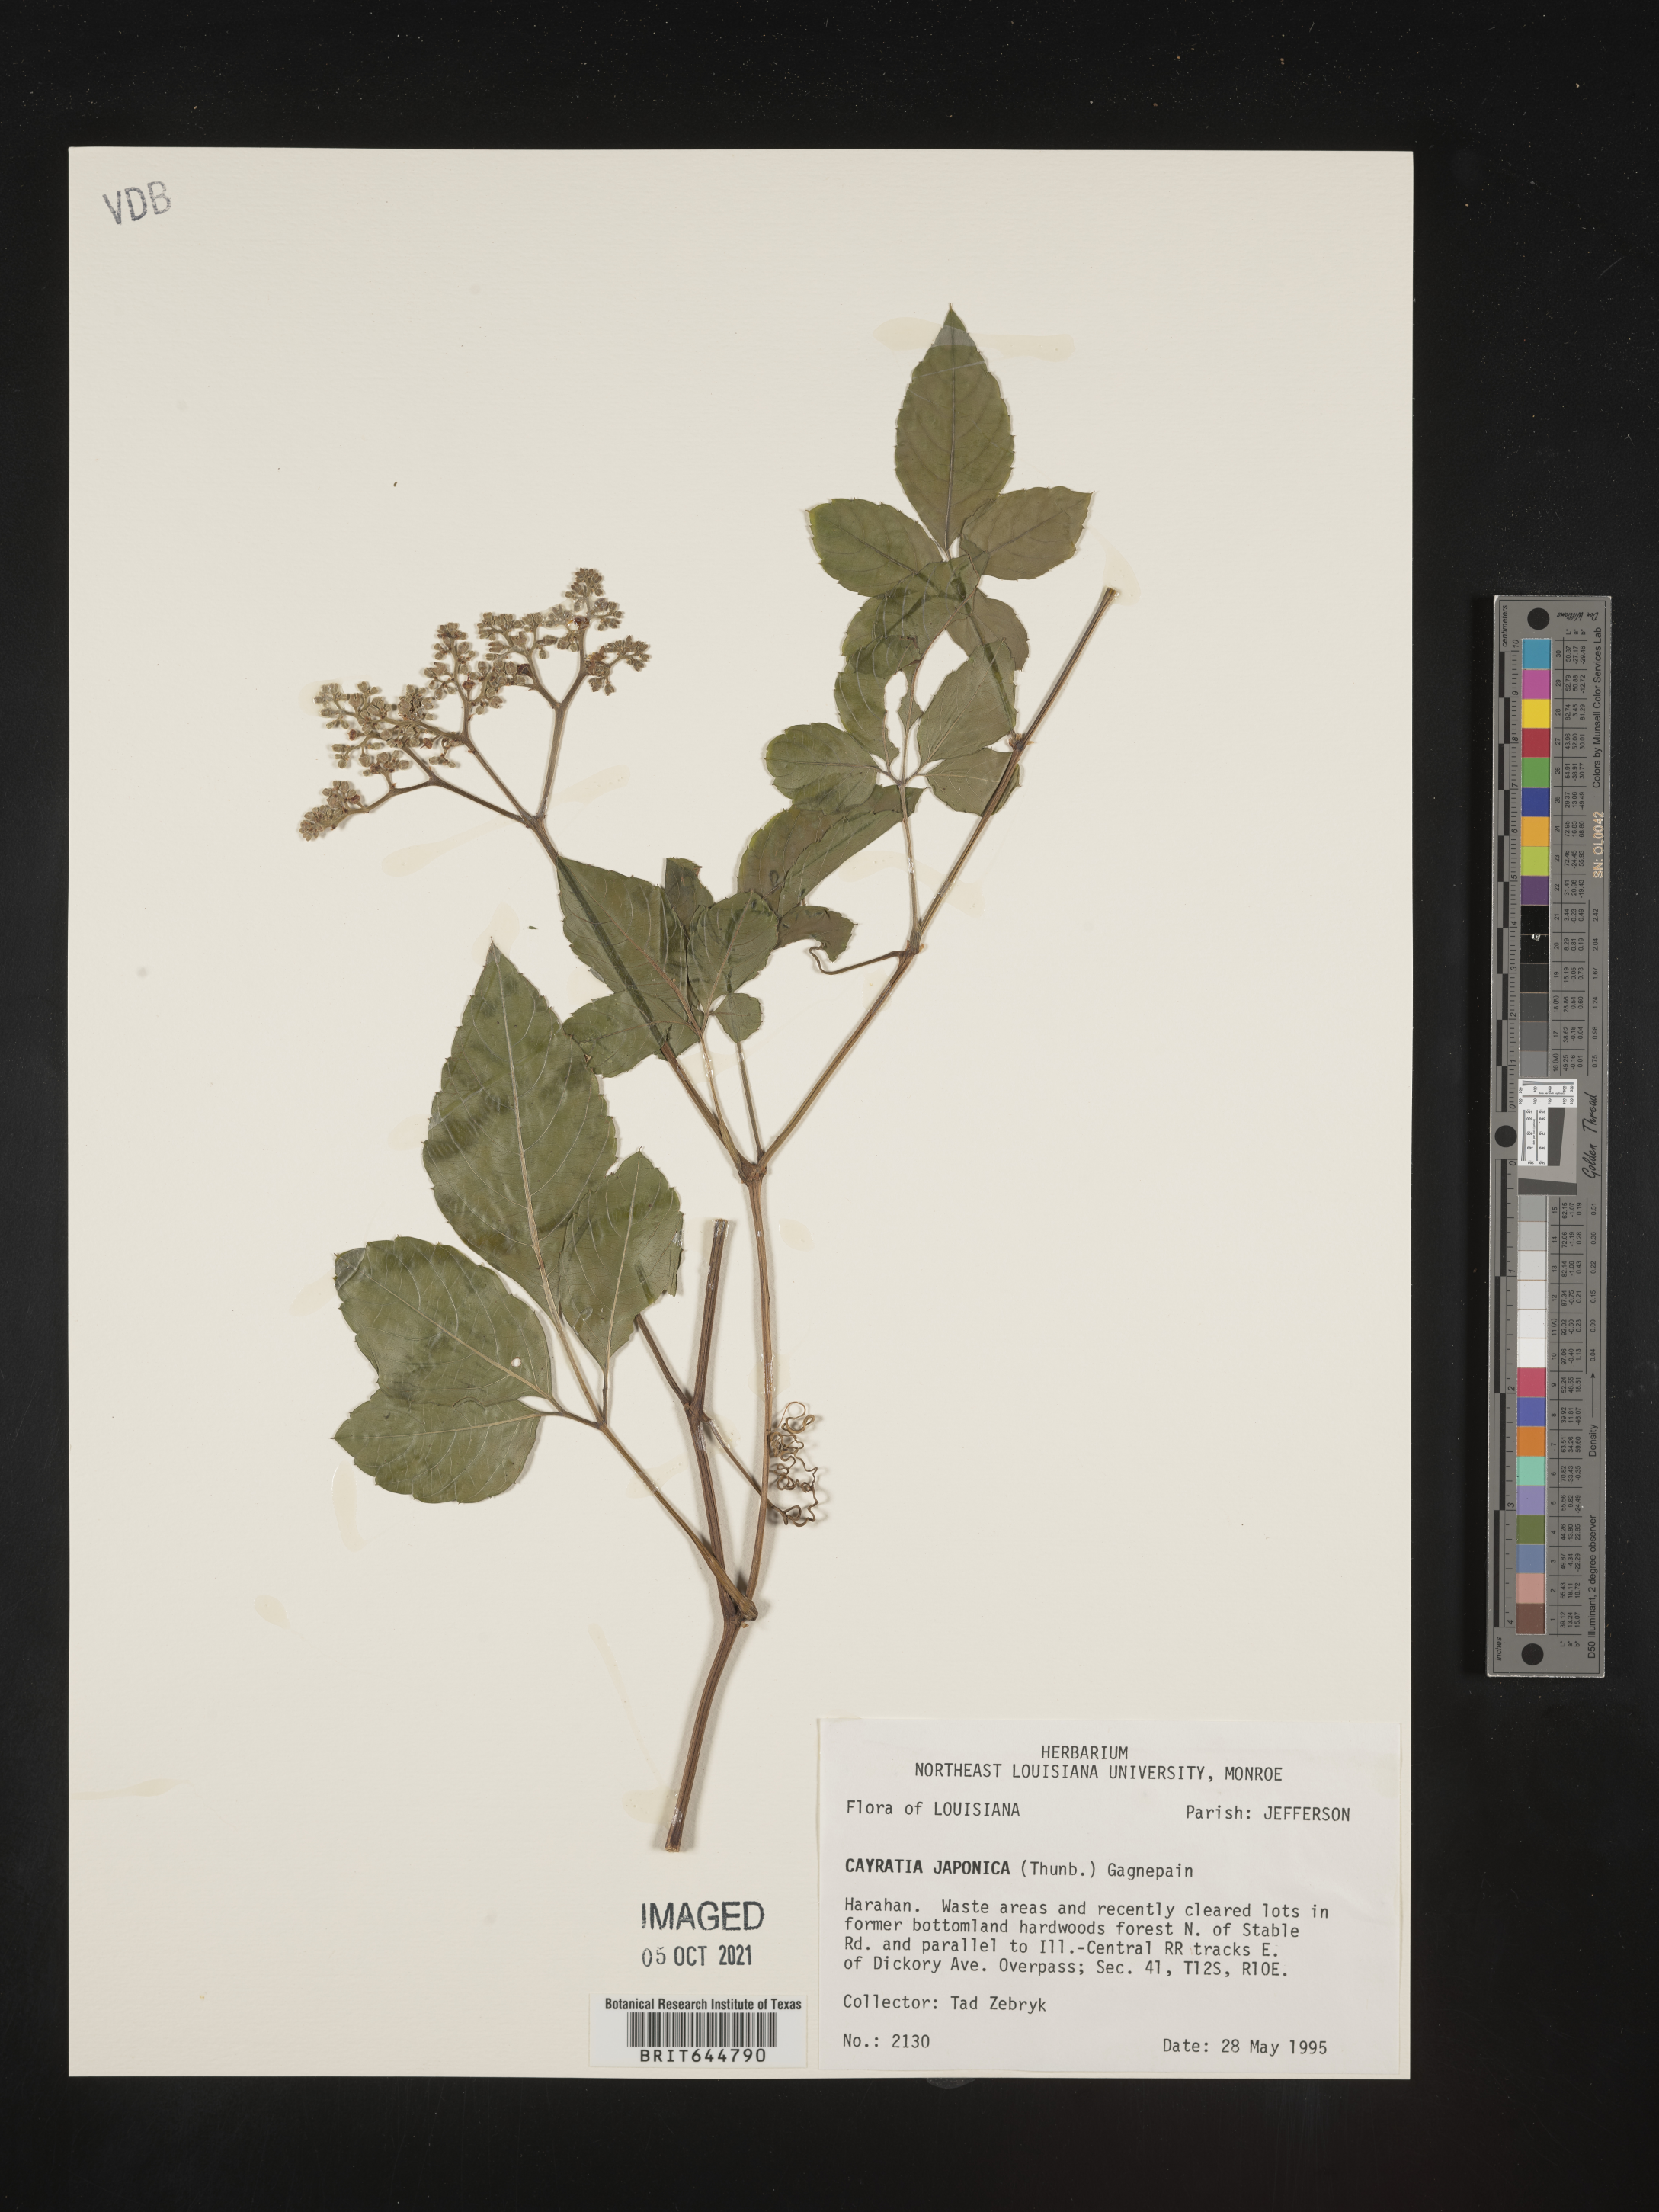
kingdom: Plantae
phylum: Tracheophyta
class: Magnoliopsida
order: Vitales
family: Vitaceae
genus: Causonis
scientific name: Causonis japonica
